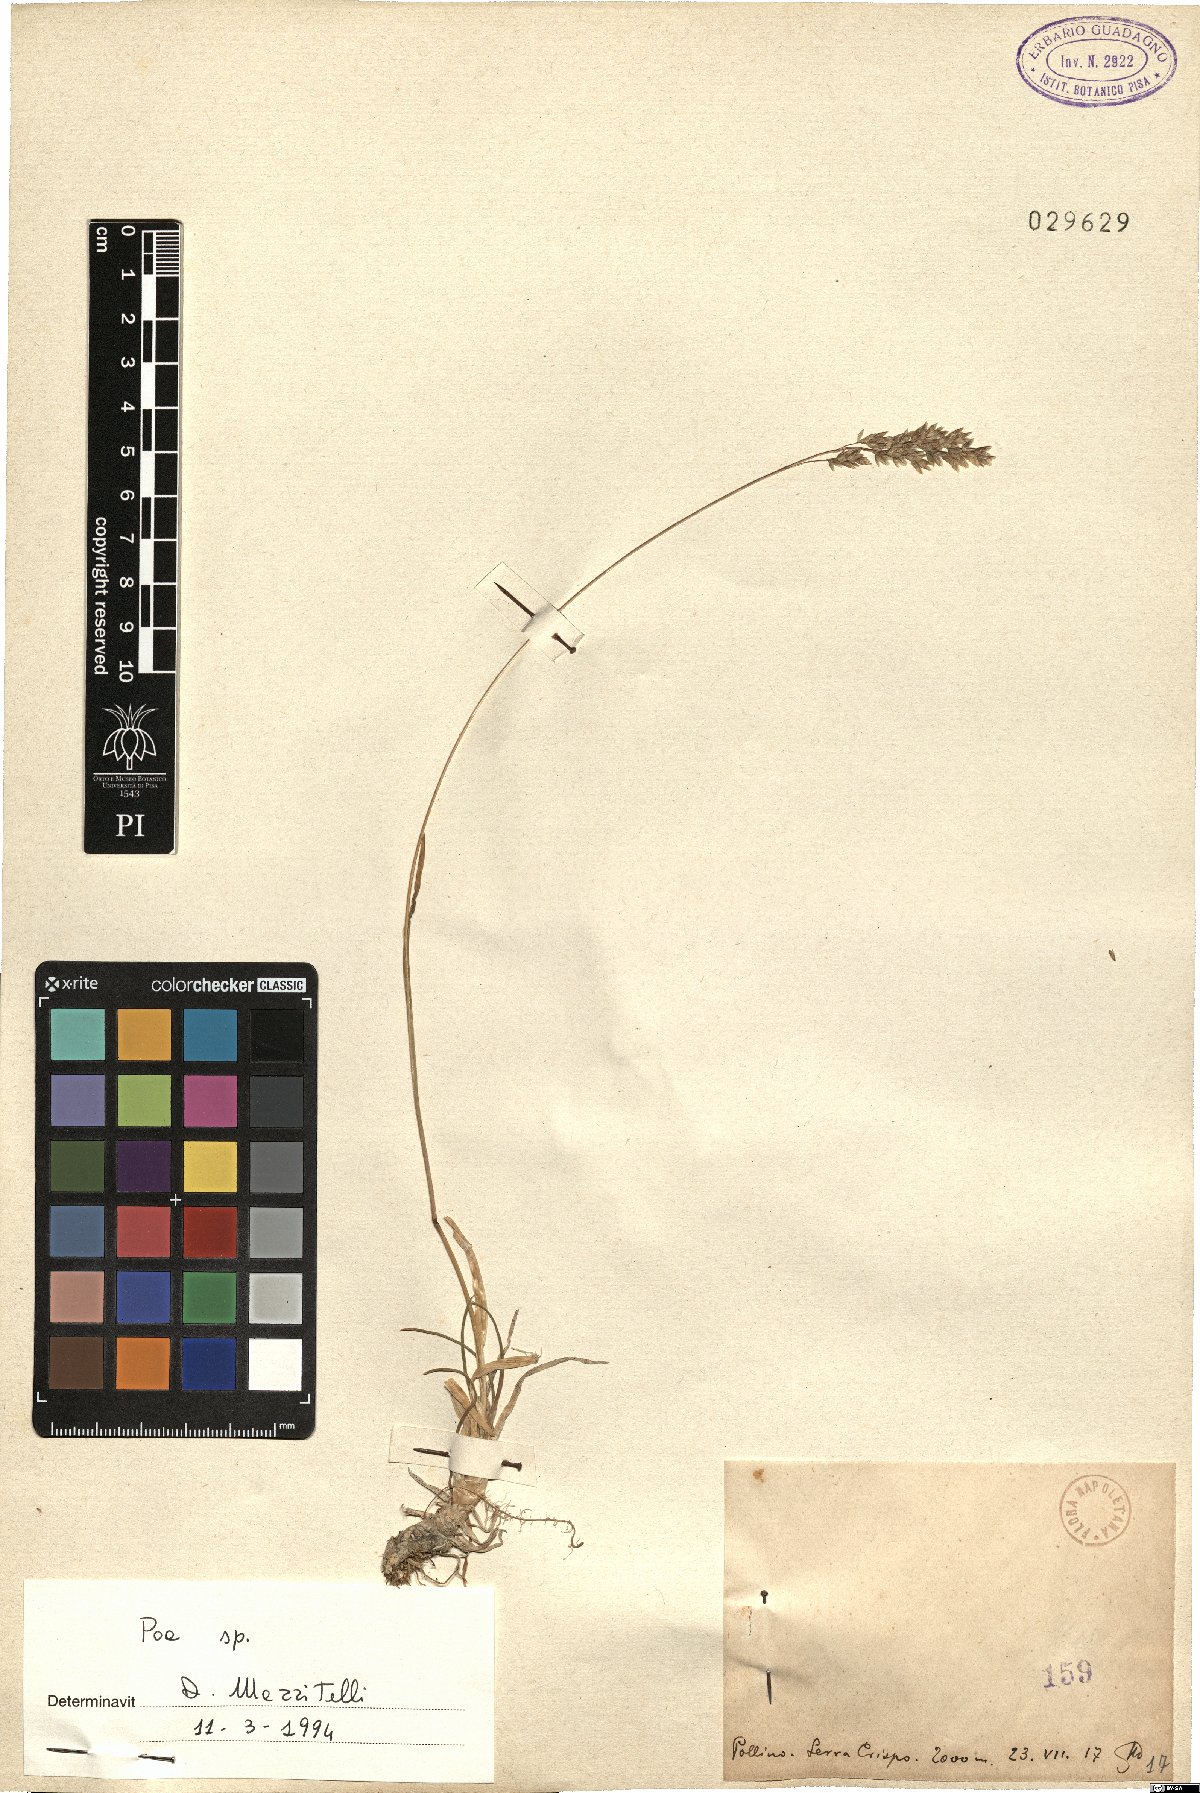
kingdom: Plantae
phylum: Tracheophyta
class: Liliopsida
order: Poales
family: Poaceae
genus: Poa
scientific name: Poa
